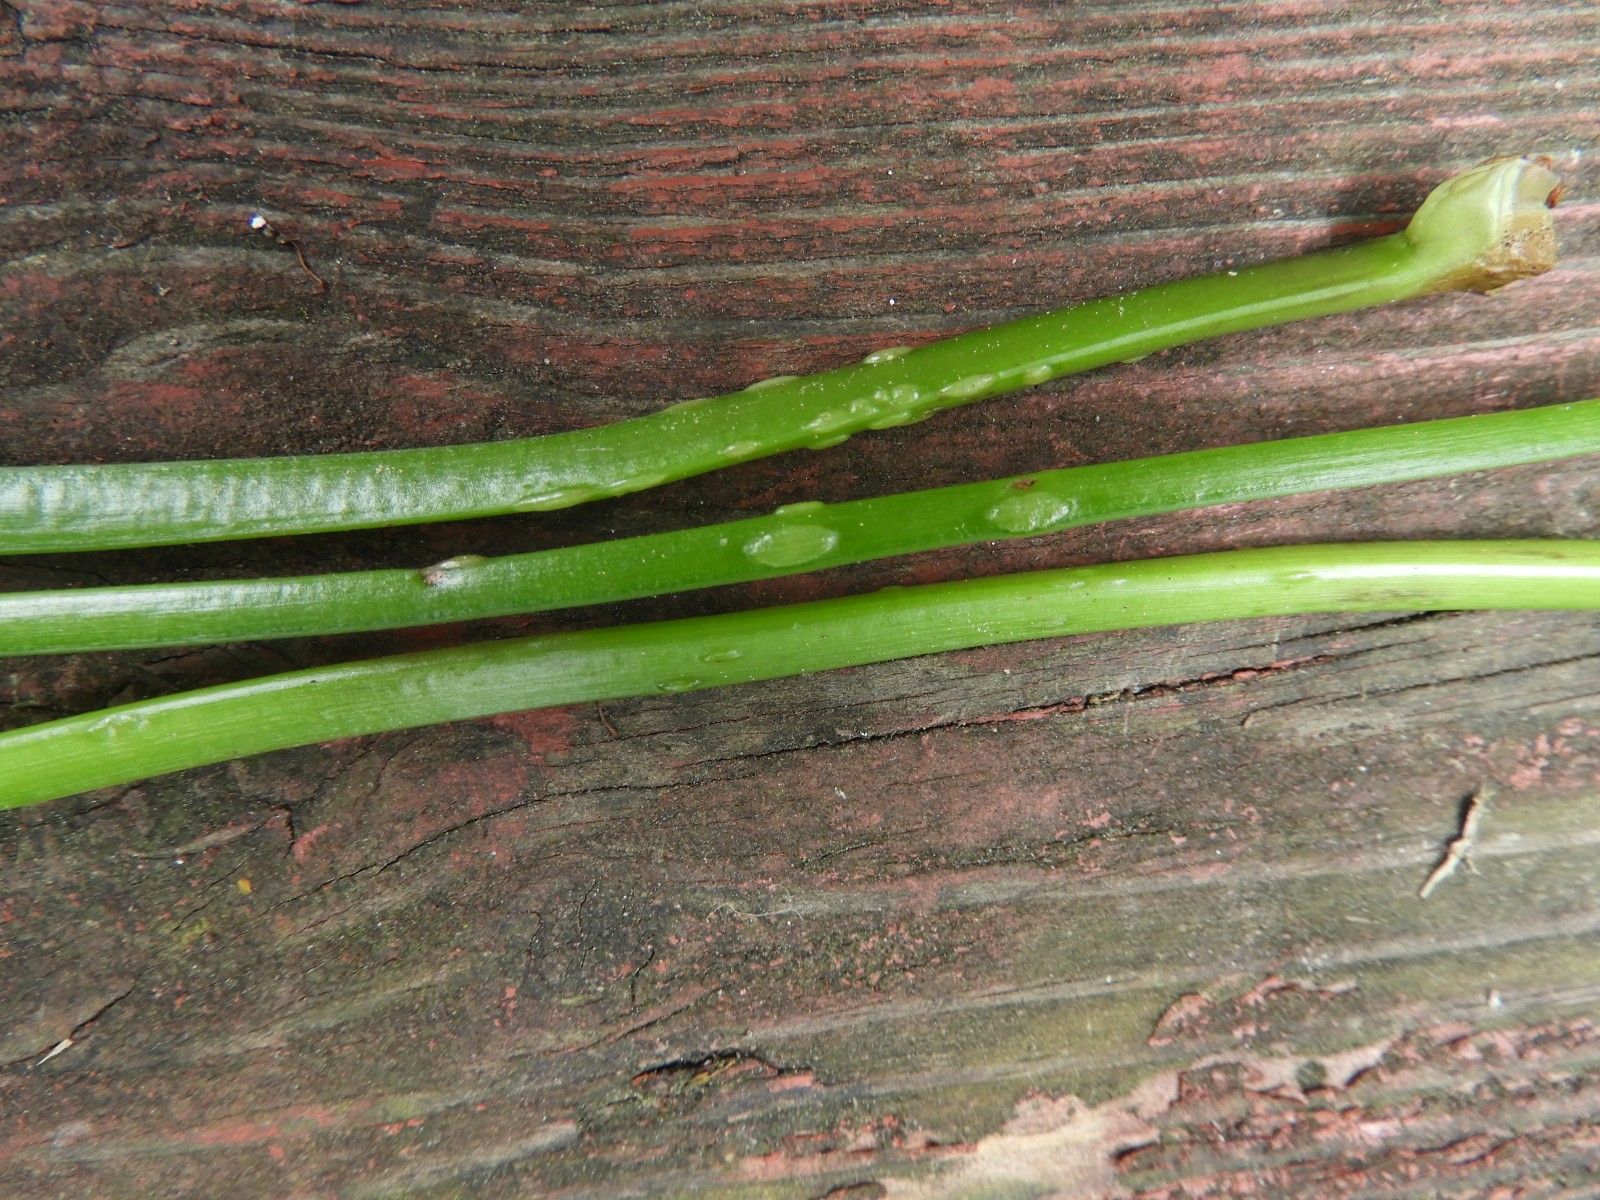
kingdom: Fungi
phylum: Ascomycota
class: Taphrinomycetes
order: Taphrinales
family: Taphrinaceae
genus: Protomyces
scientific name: Protomyces macrosporus
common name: skvalderkål-vablesæk
